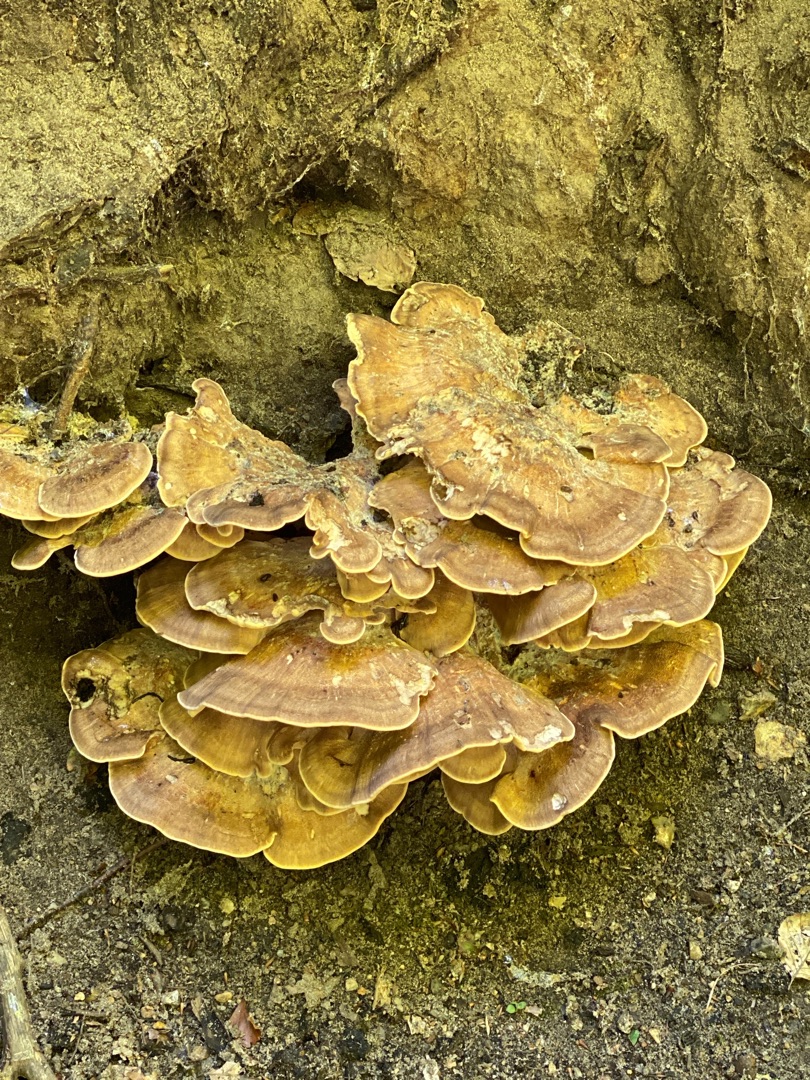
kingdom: Fungi
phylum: Basidiomycota
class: Agaricomycetes
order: Polyporales
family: Meripilaceae
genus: Meripilus
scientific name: Meripilus giganteus
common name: Kæmpeporesvamp
